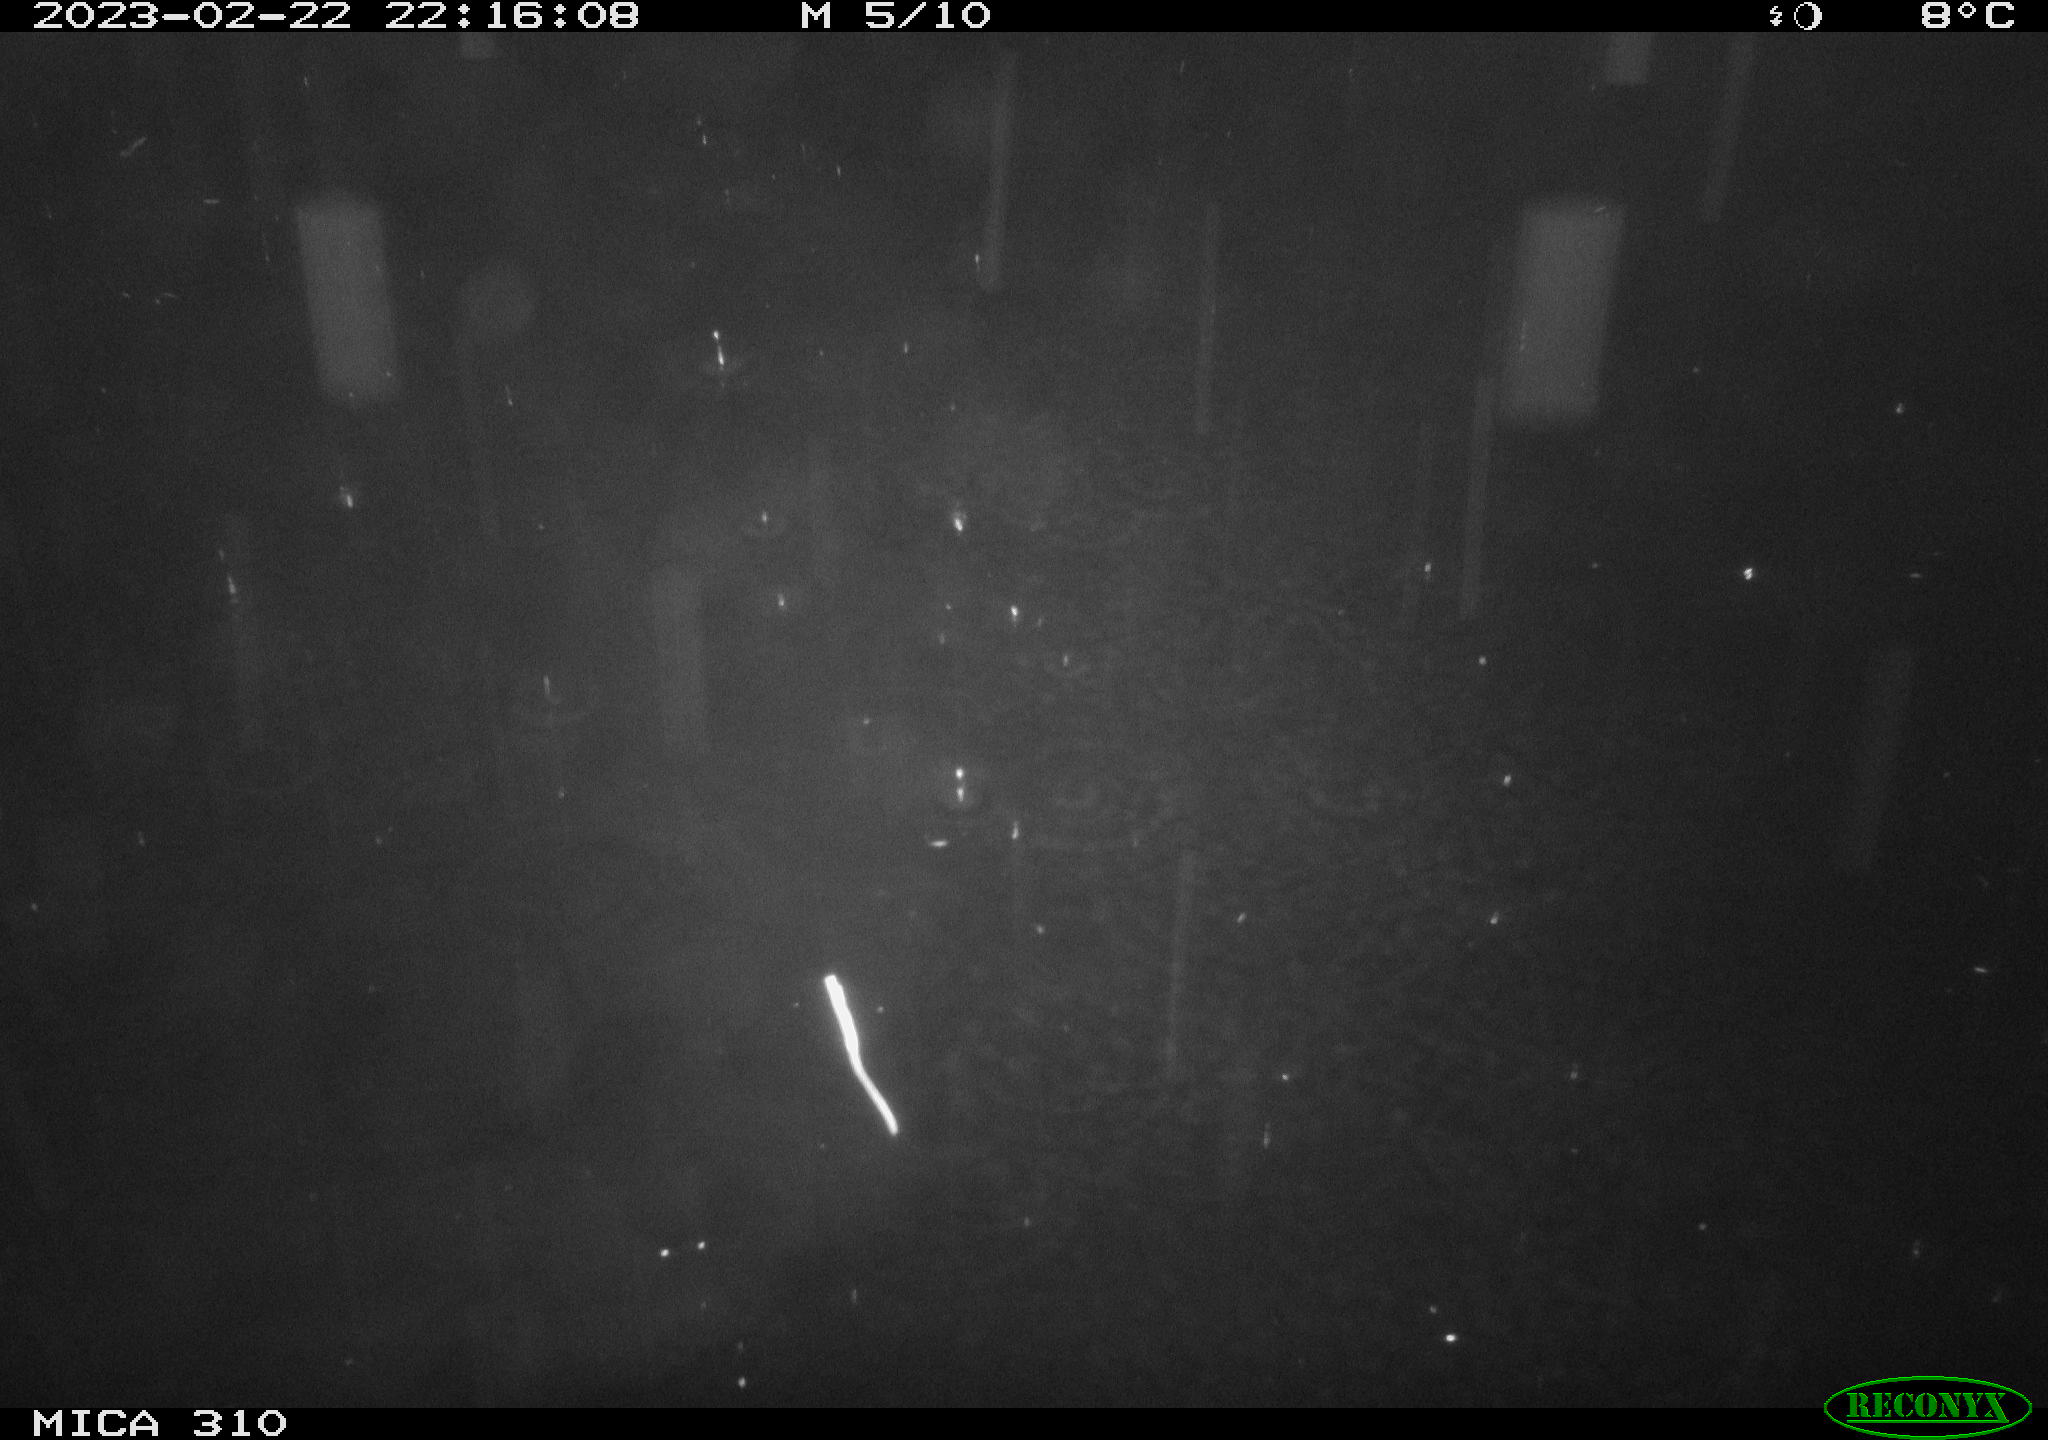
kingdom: Animalia
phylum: Chordata
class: Mammalia
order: Rodentia
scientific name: Rodentia
